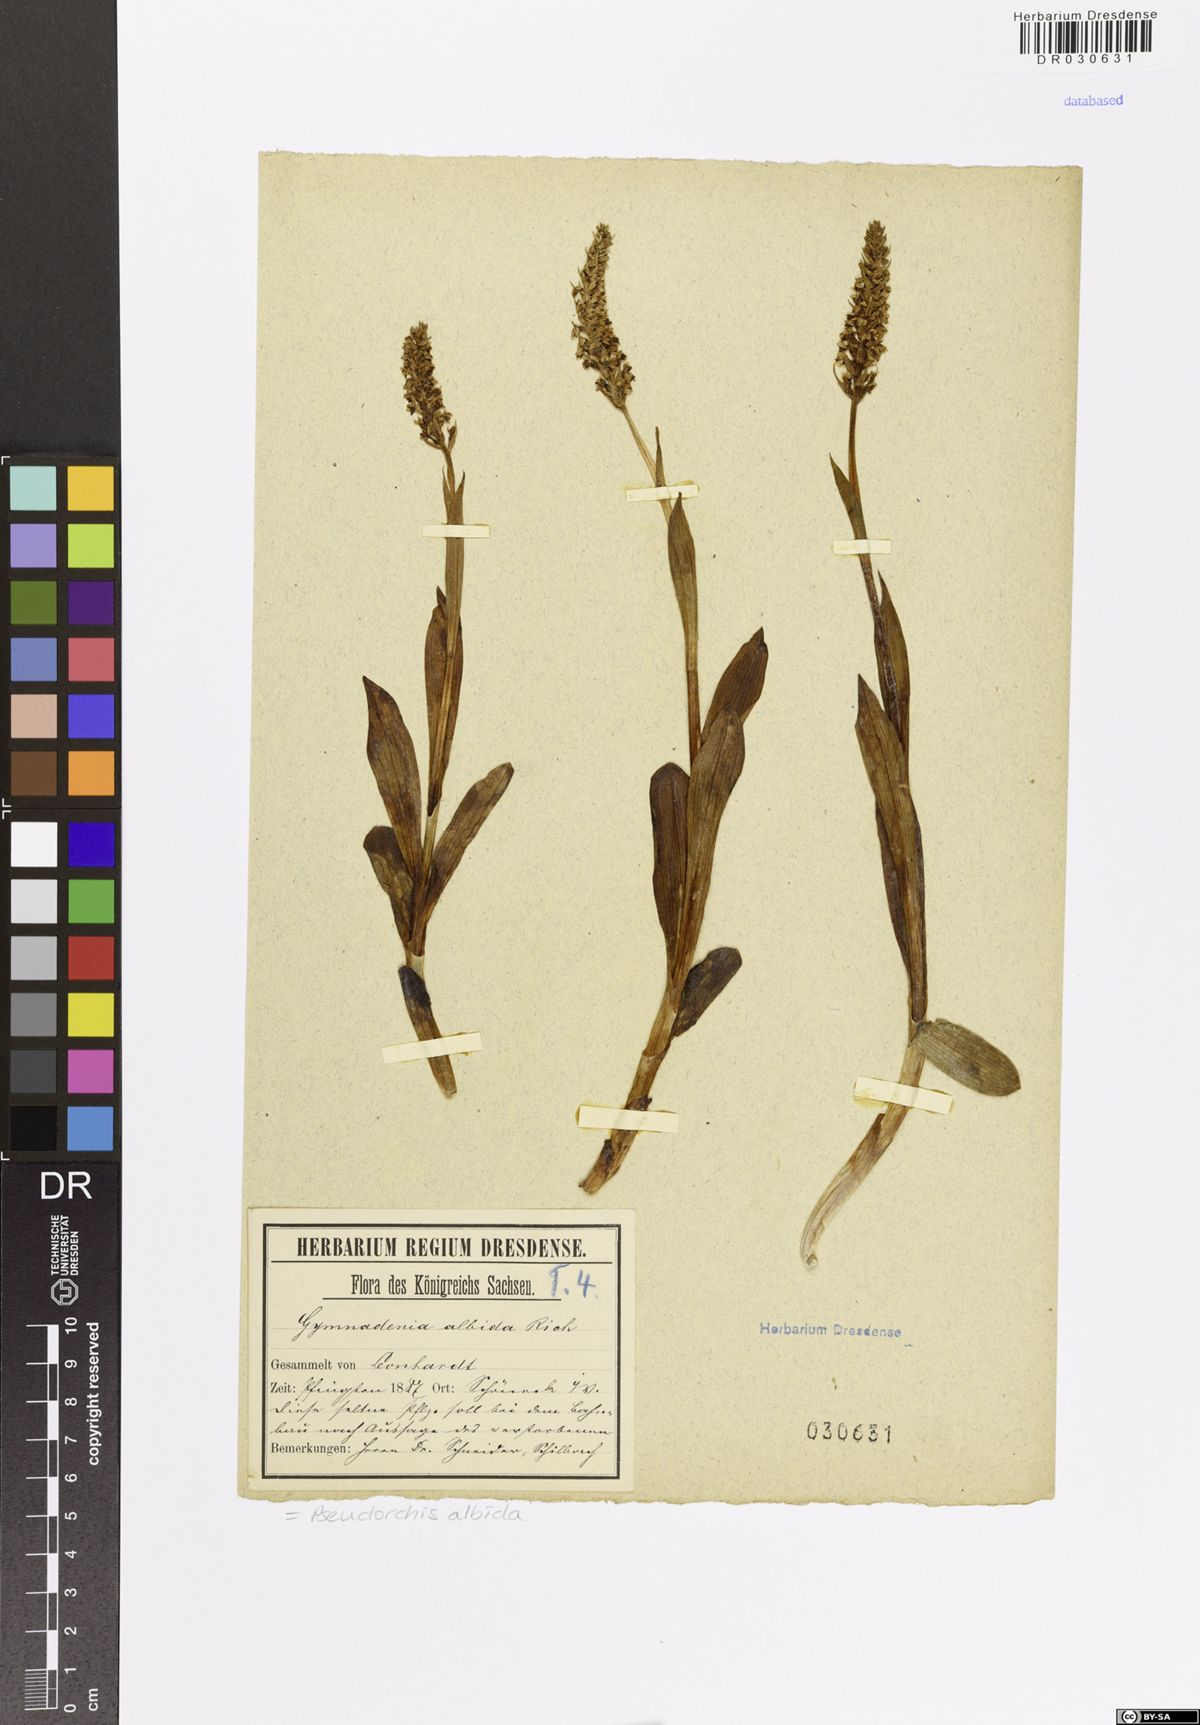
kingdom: Plantae
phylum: Tracheophyta
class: Liliopsida
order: Asparagales
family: Orchidaceae
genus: Pseudorchis
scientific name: Pseudorchis albida
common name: Small-white orchid
